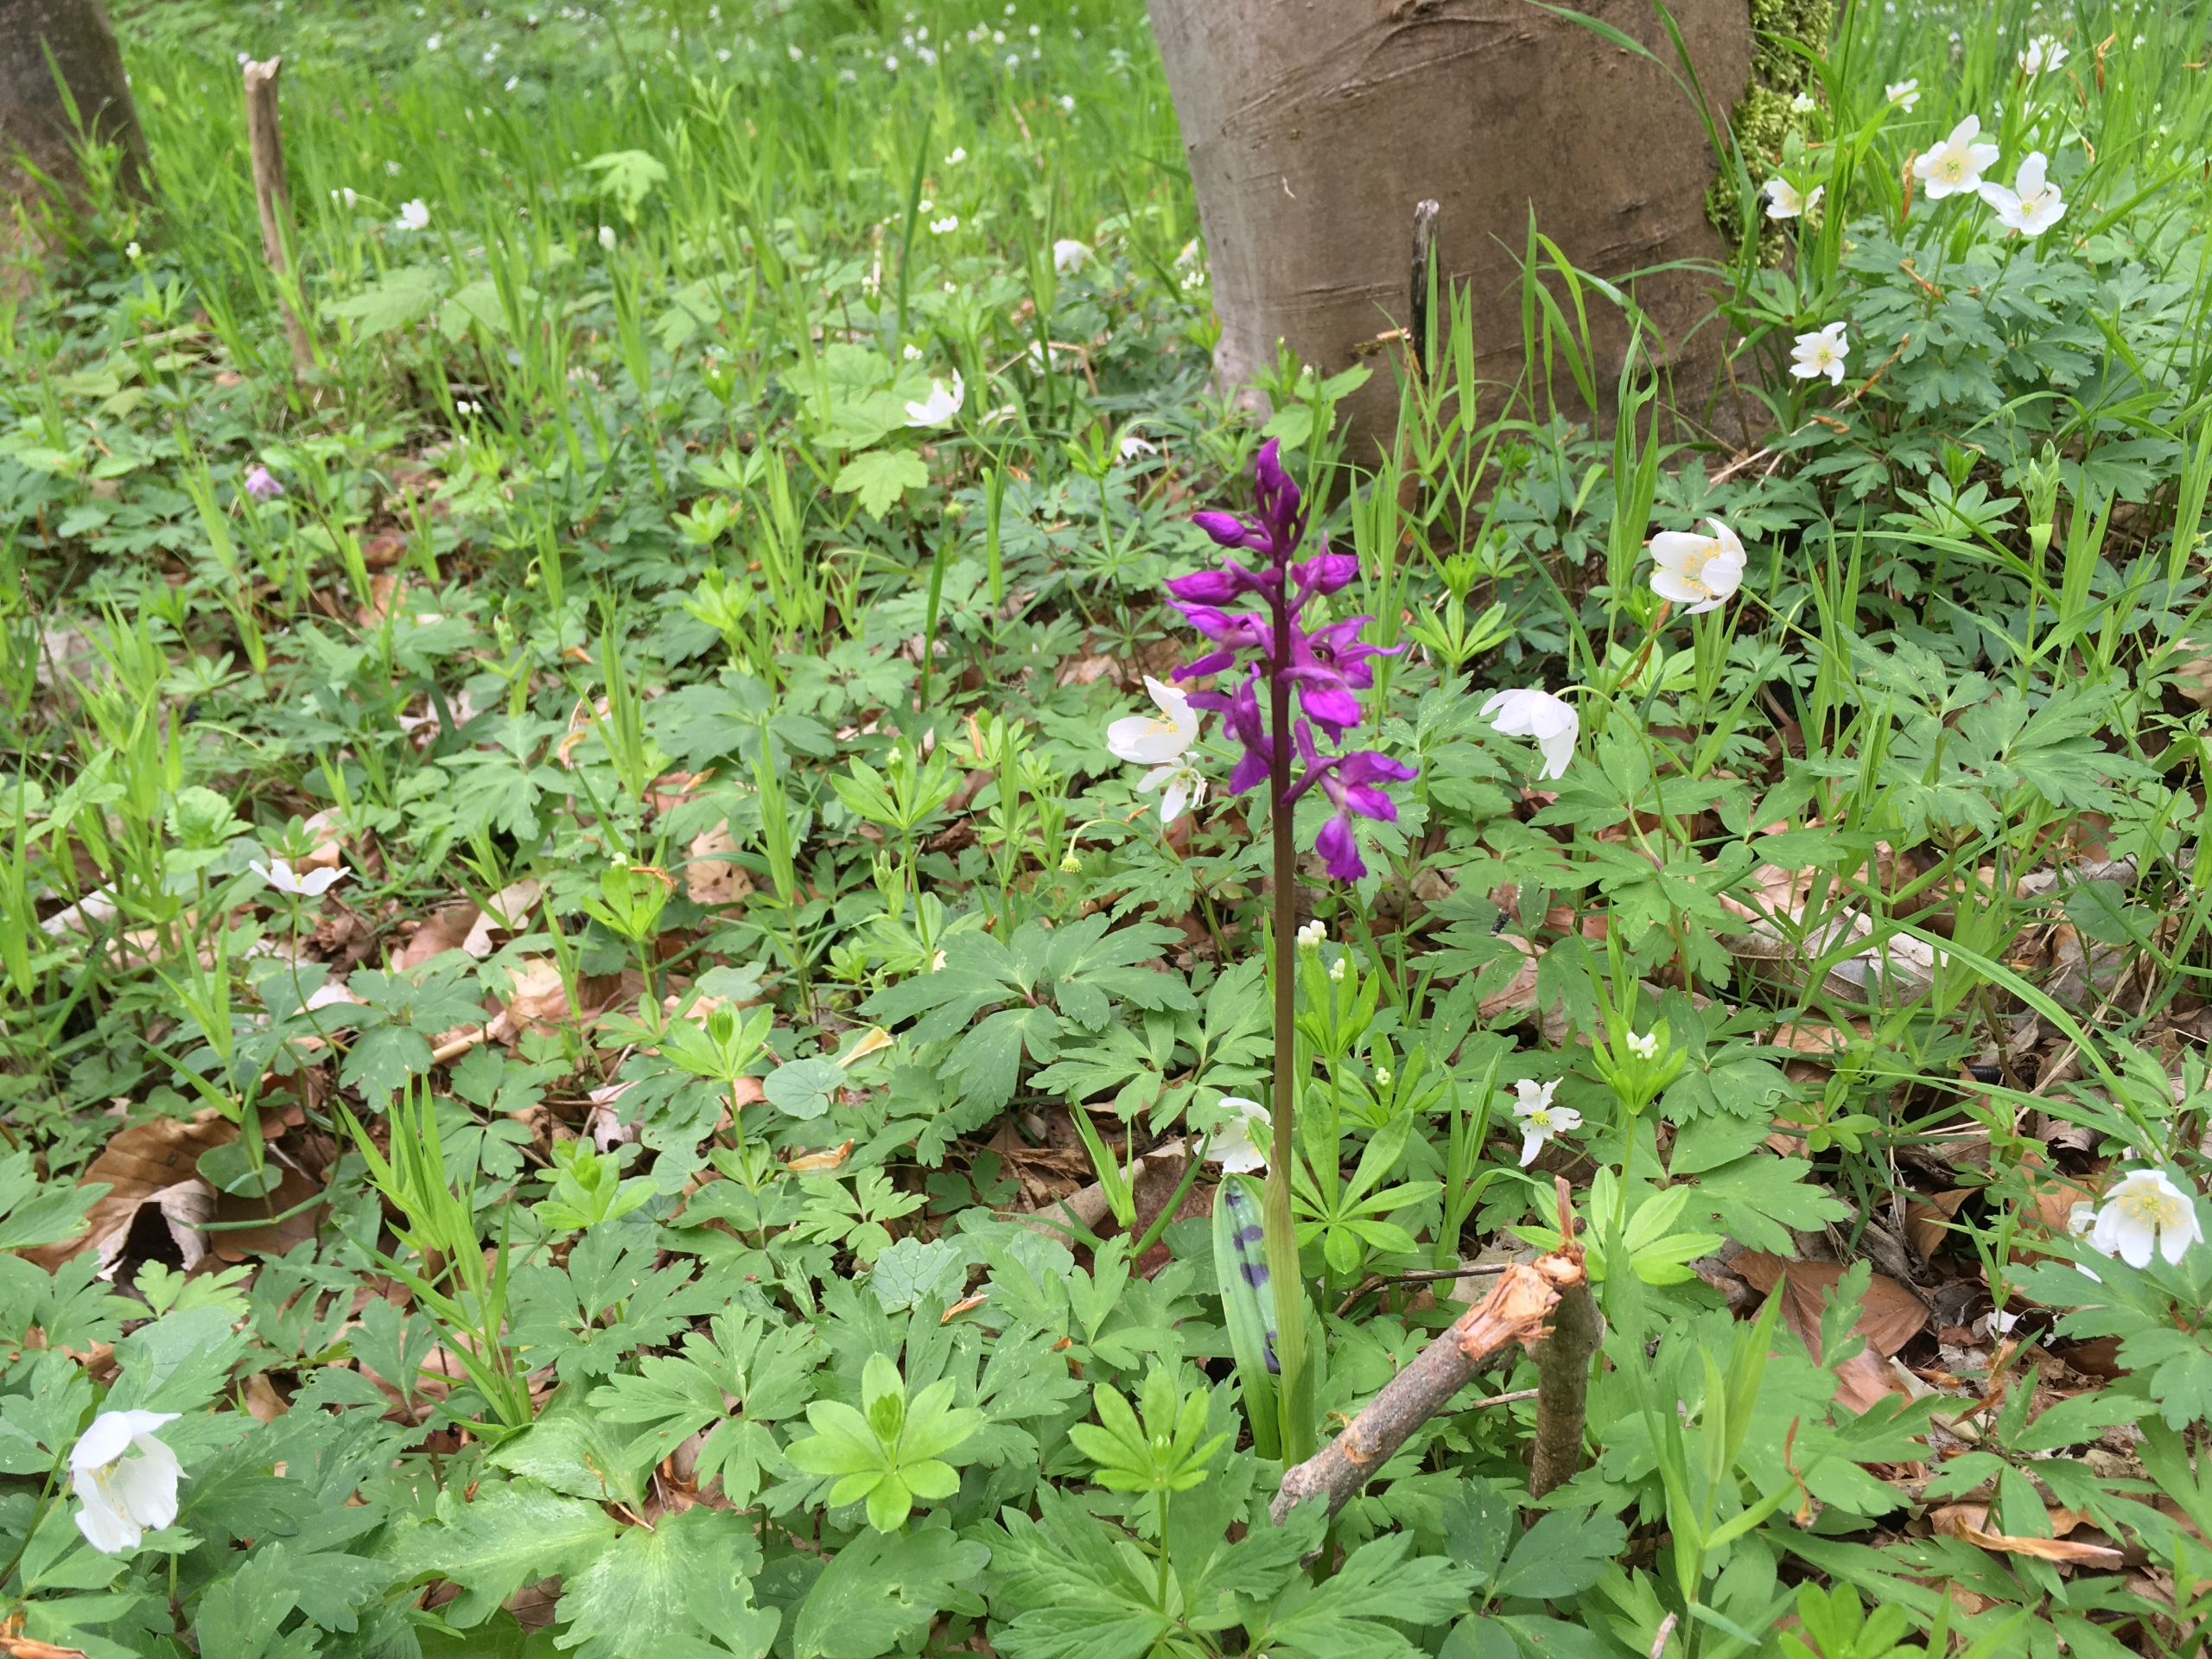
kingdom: Plantae
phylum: Tracheophyta
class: Liliopsida
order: Asparagales
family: Orchidaceae
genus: Orchis
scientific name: Orchis mascula
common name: Tyndakset gøgeurt
